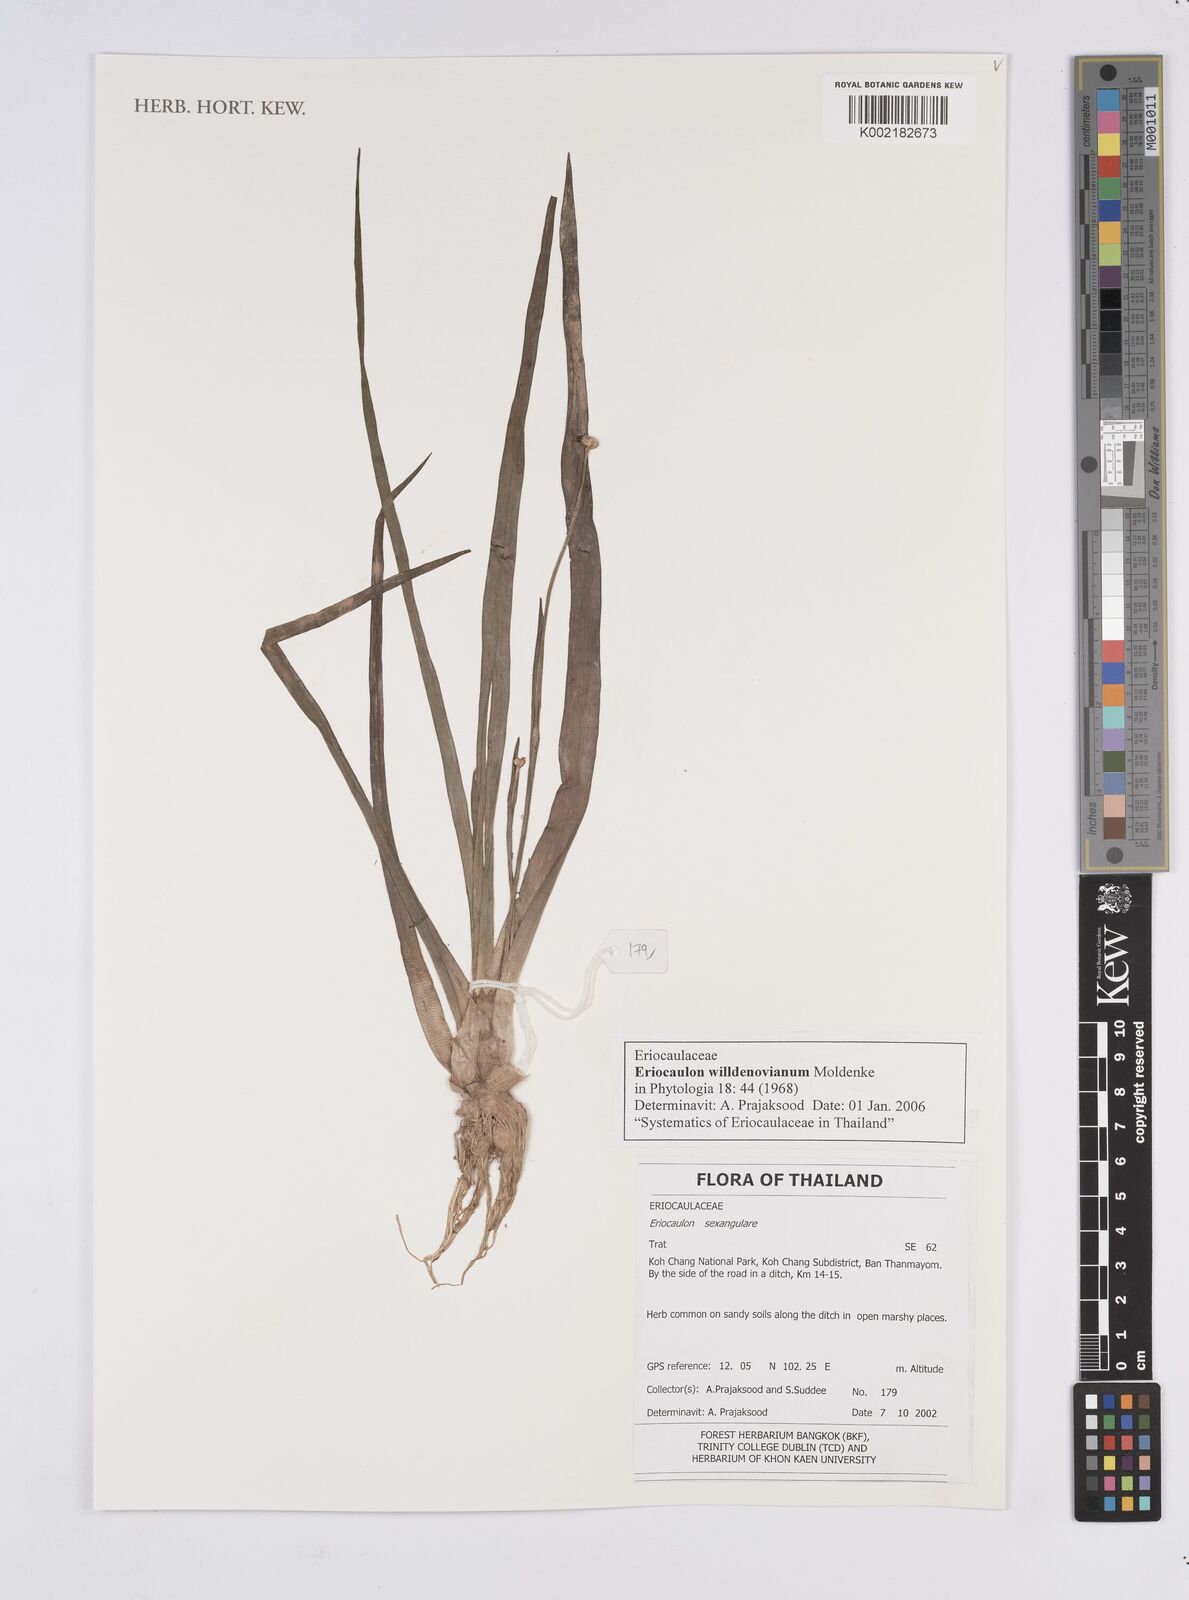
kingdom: Plantae
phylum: Tracheophyta
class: Liliopsida
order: Poales
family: Eriocaulaceae
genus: Eriocaulon
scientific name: Eriocaulon willdenovianum
